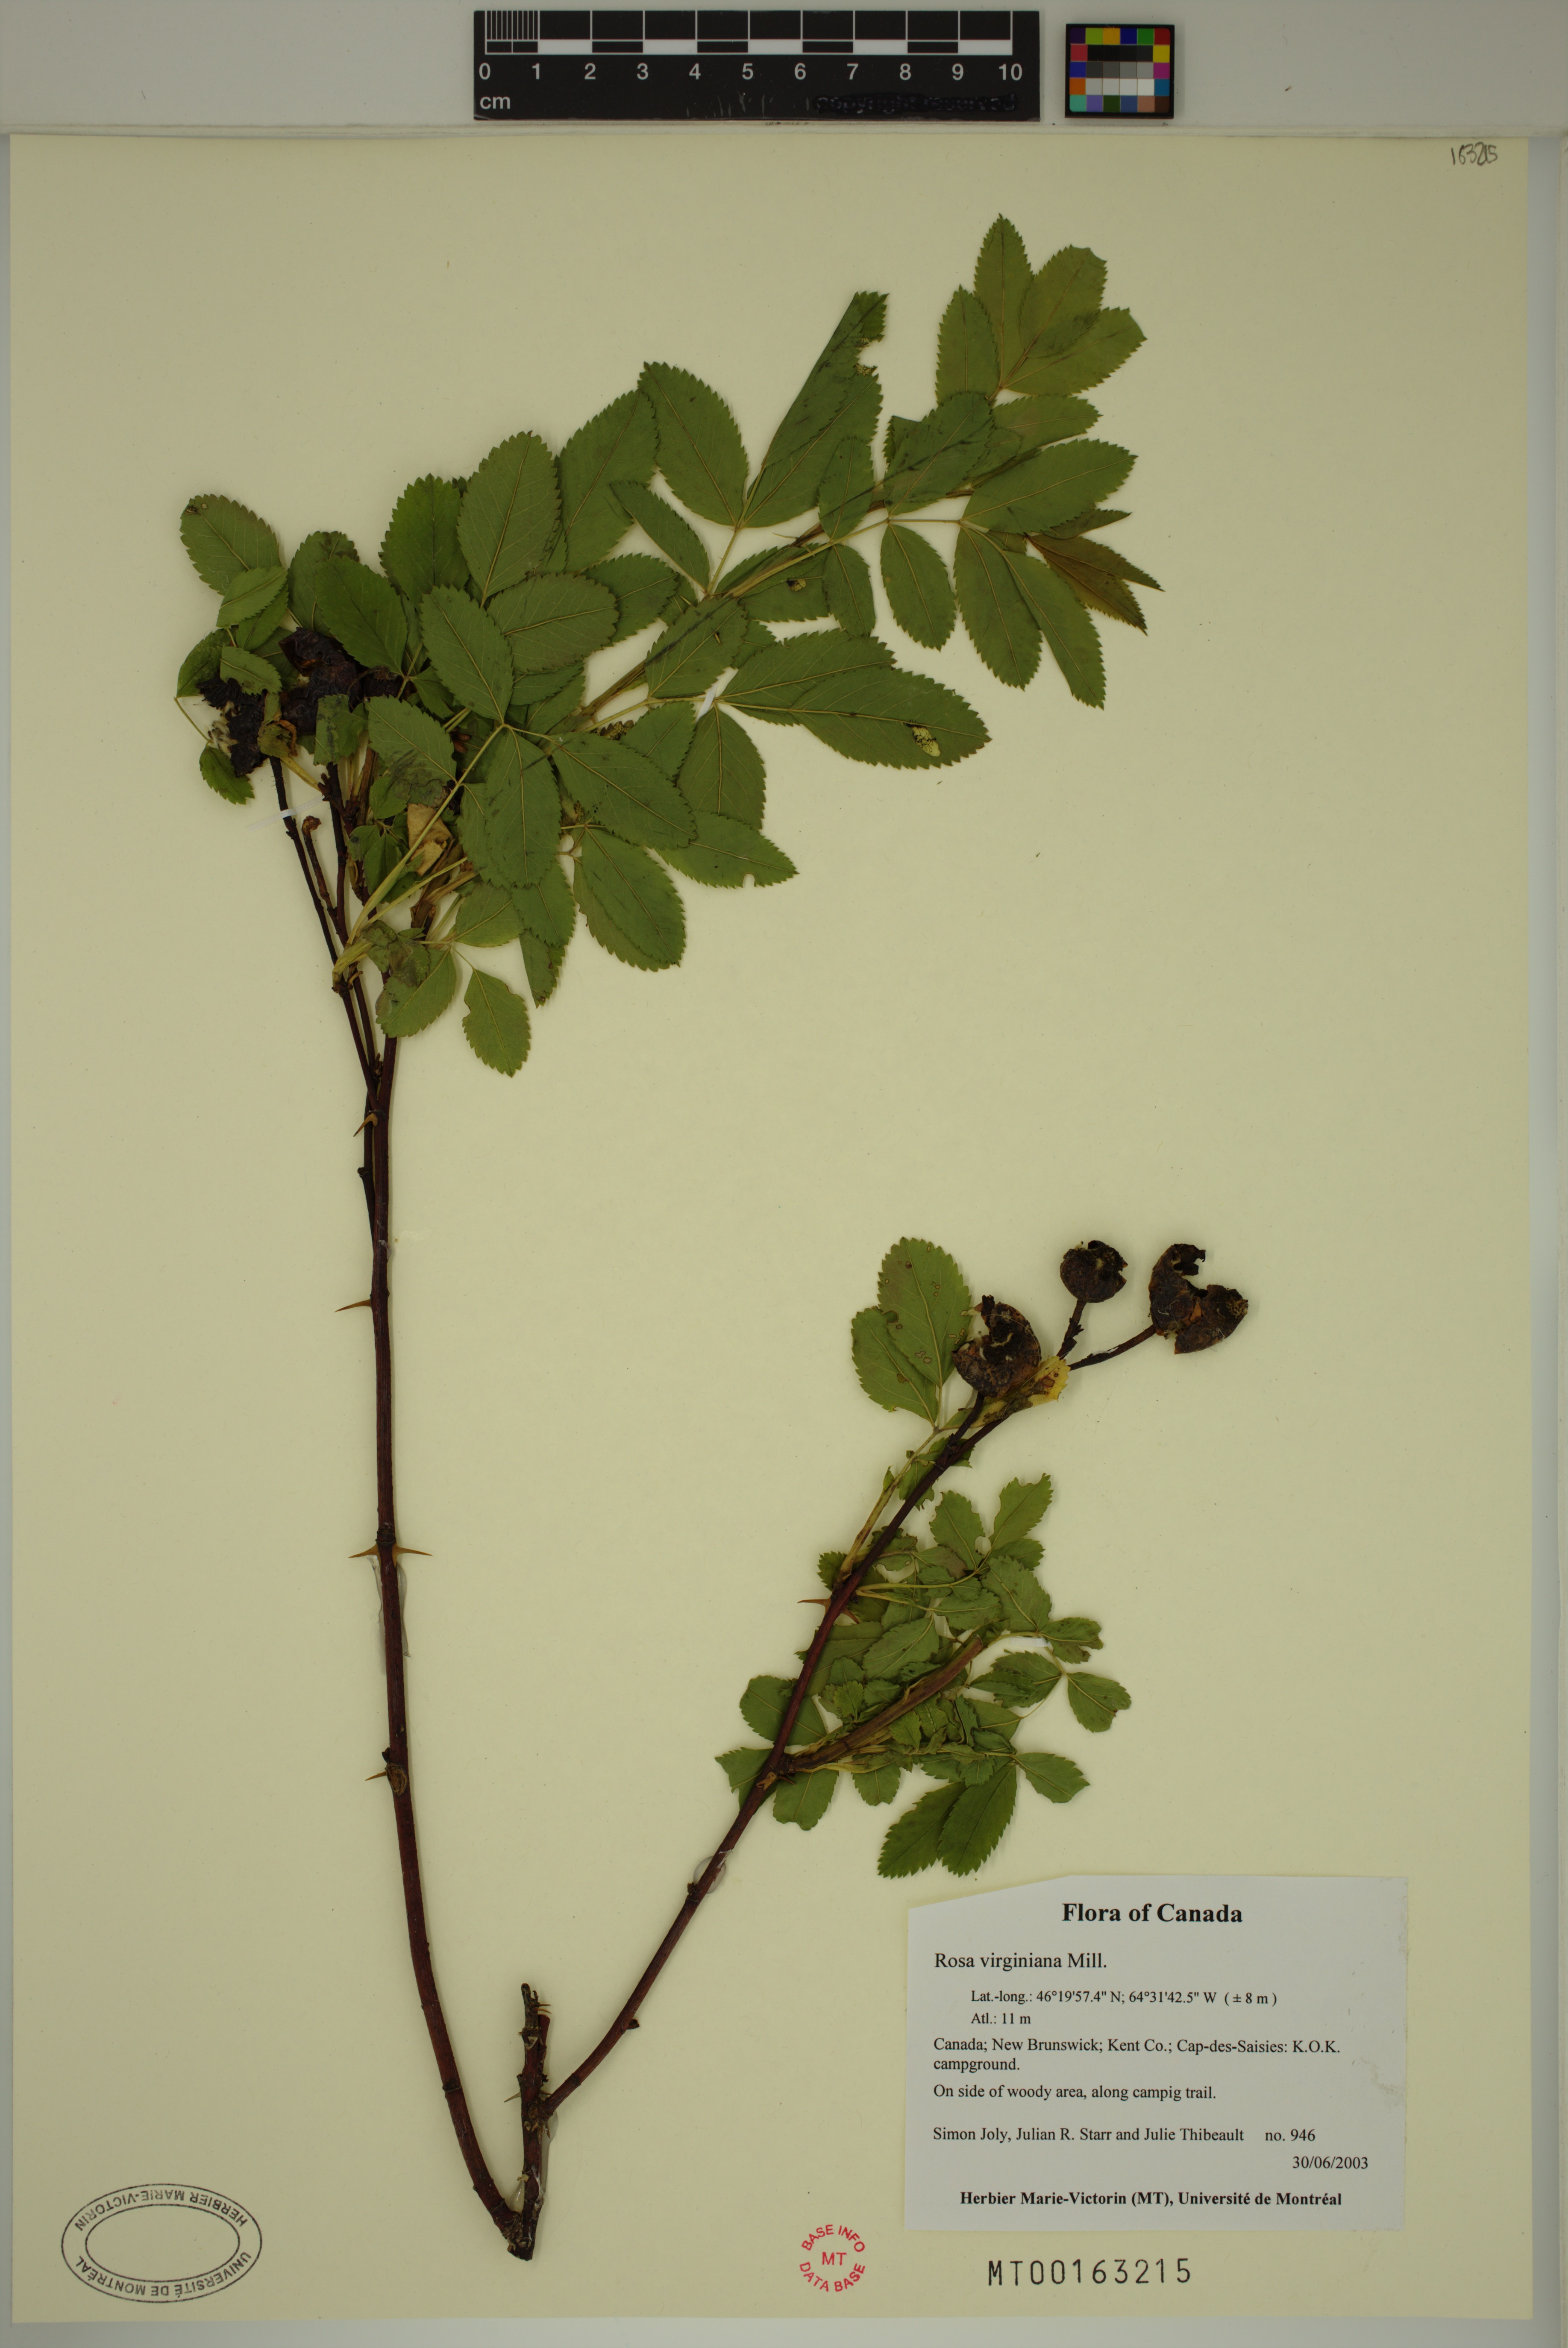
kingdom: Plantae
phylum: Tracheophyta
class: Magnoliopsida
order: Rosales
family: Rosaceae
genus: Rosa
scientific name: Rosa carolina
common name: Pasture rose
